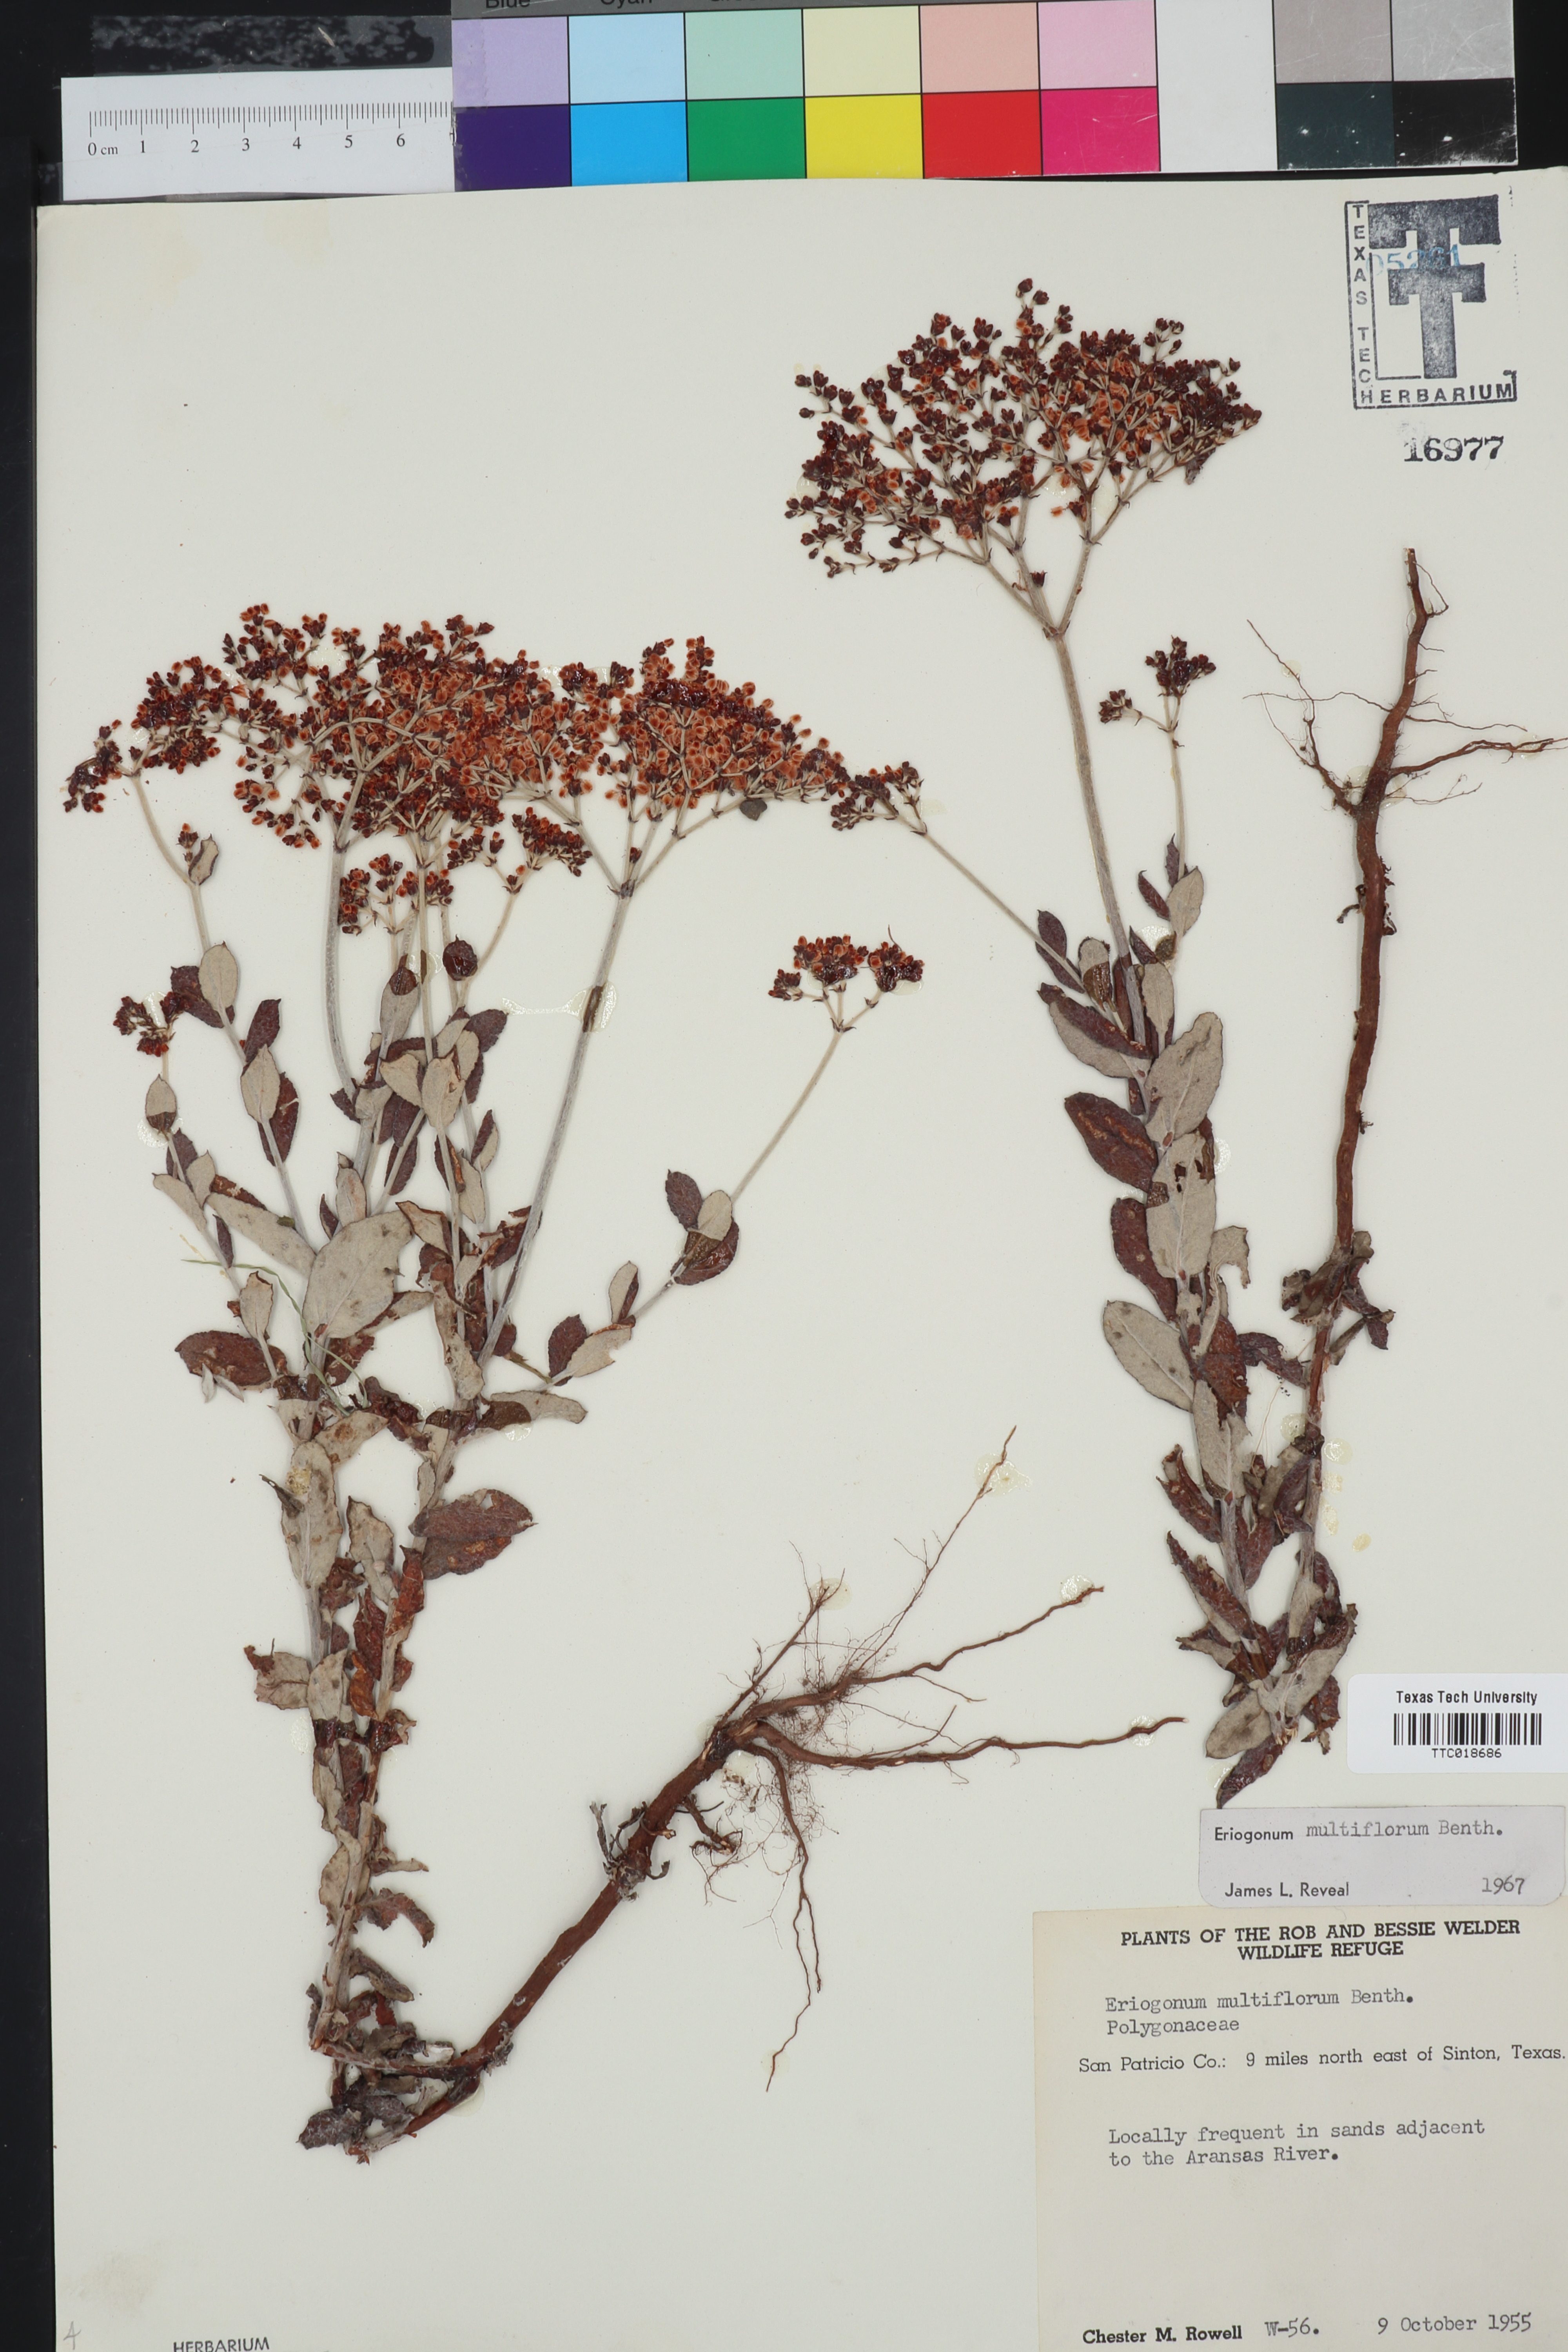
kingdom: Plantae
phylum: Tracheophyta
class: Magnoliopsida
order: Caryophyllales
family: Polygonaceae
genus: Eriogonum
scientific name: Eriogonum multiflorum
